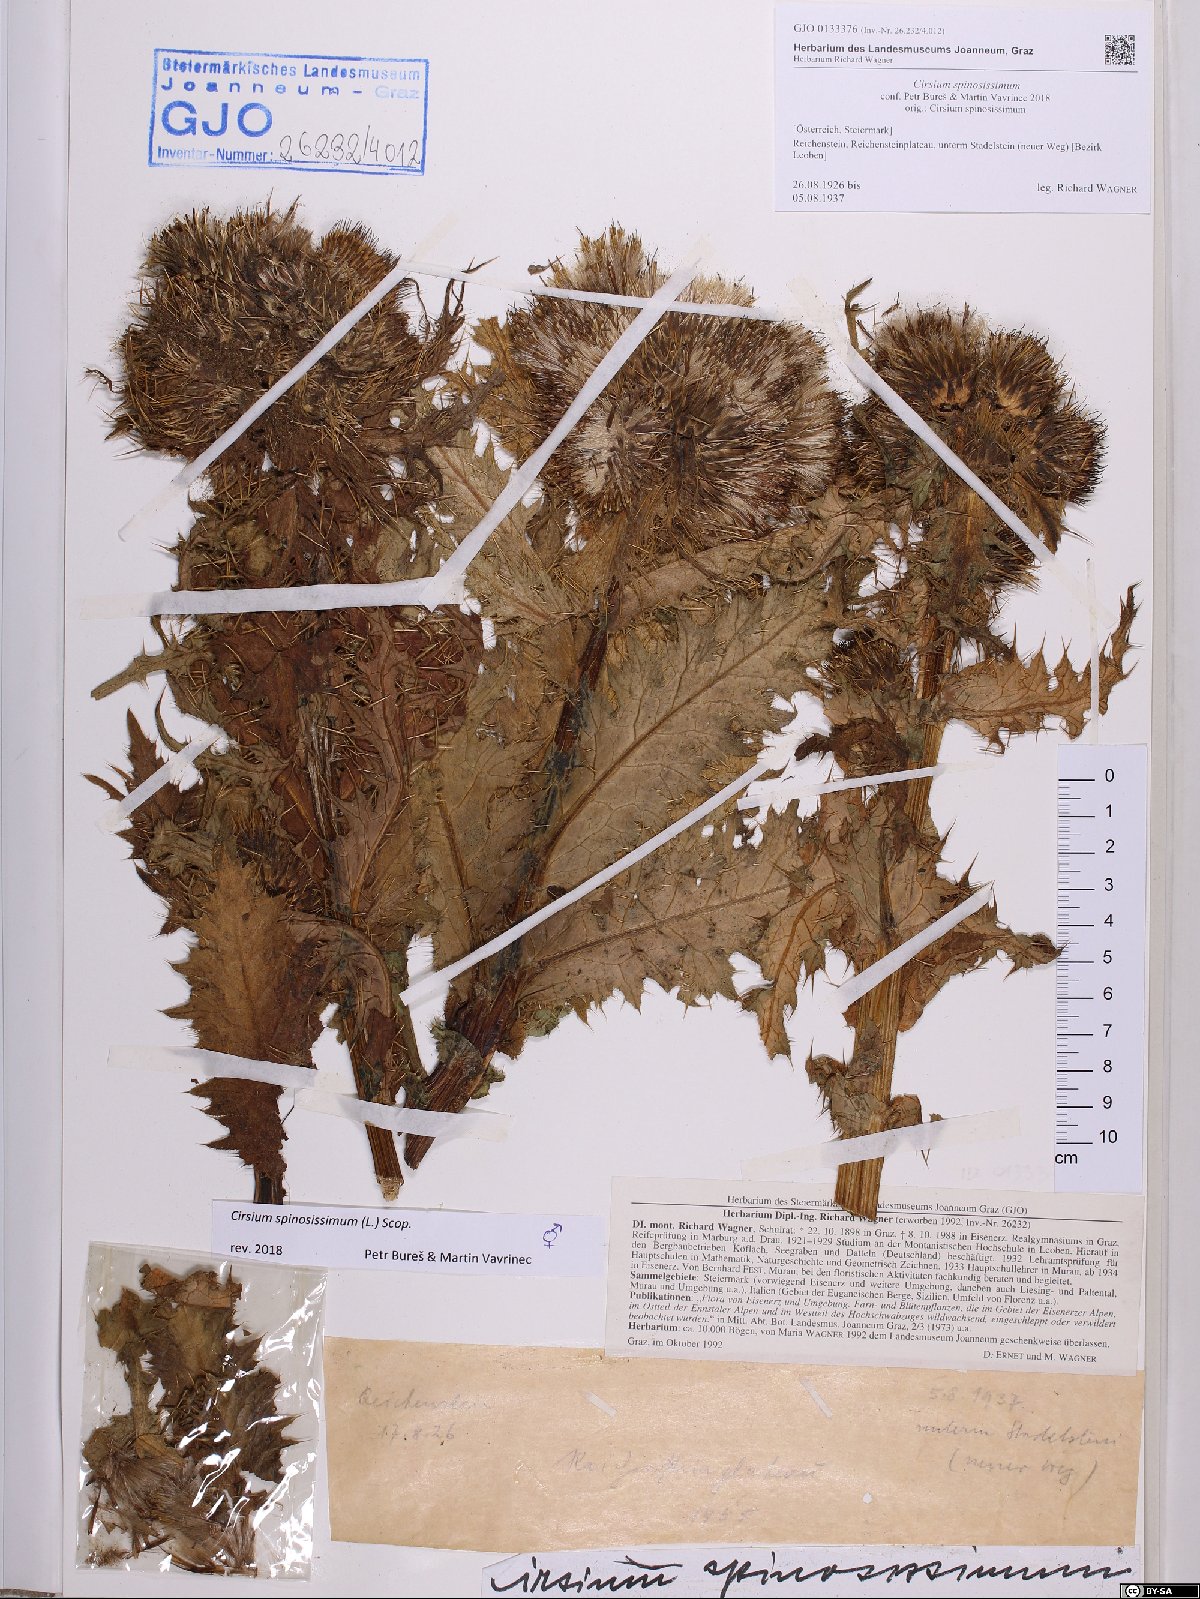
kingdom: Plantae
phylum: Tracheophyta
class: Magnoliopsida
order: Asterales
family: Asteraceae
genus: Cirsium
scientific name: Cirsium spinosissimum
